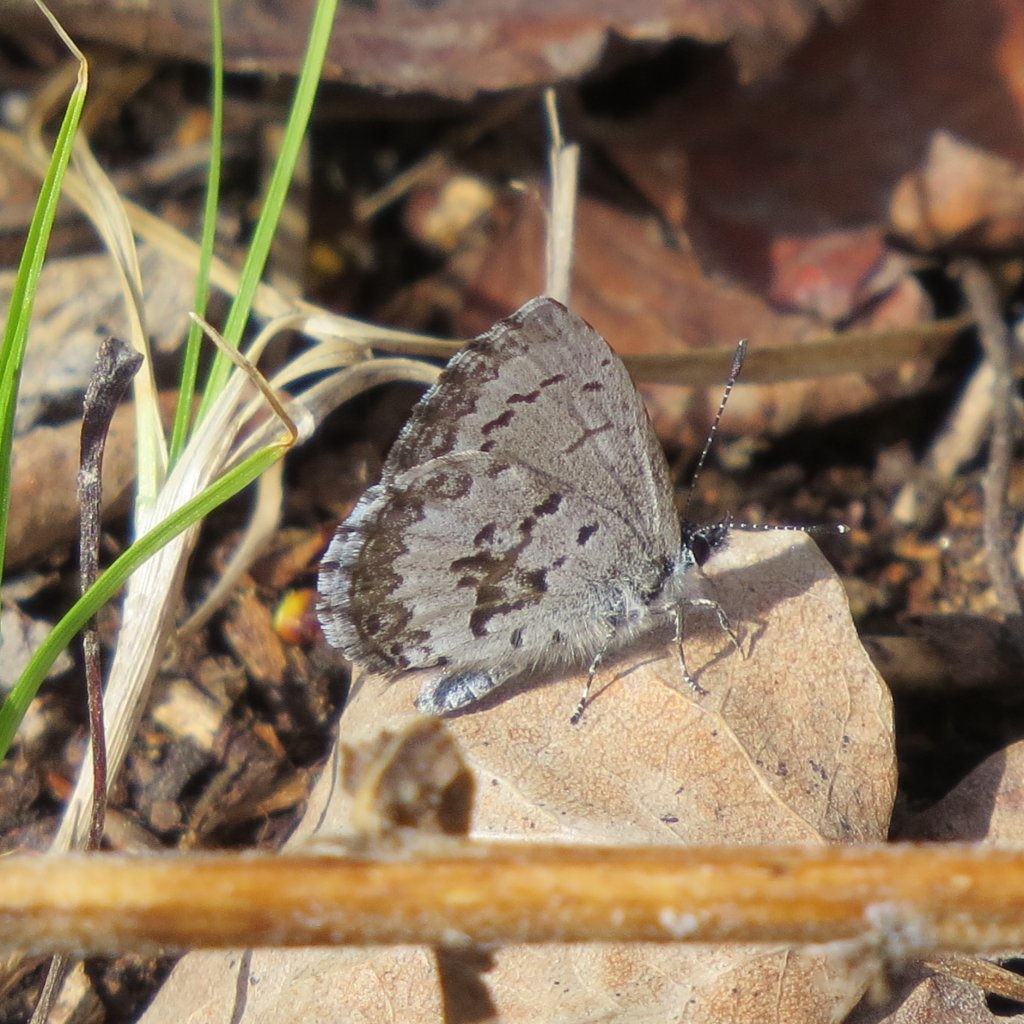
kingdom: Animalia
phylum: Arthropoda
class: Insecta
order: Lepidoptera
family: Lycaenidae
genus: Celastrina
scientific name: Celastrina lucia
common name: Northern Spring Azure
